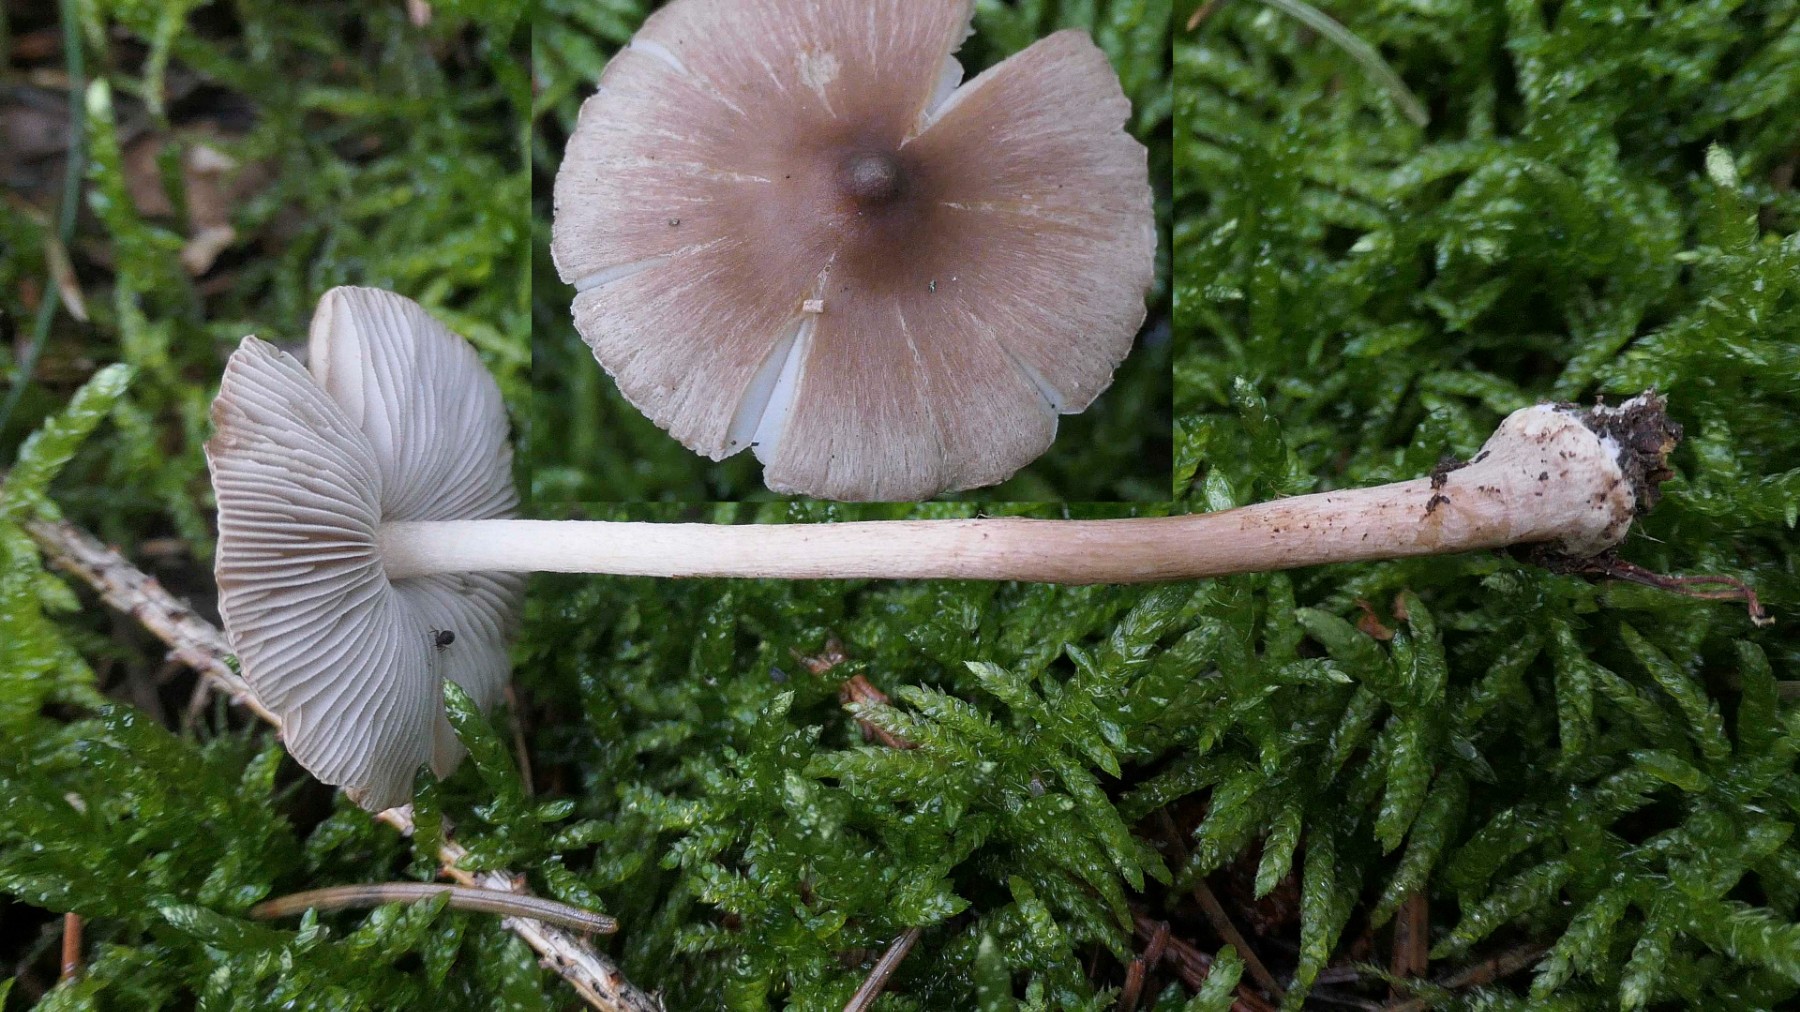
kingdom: Fungi
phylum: Basidiomycota
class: Agaricomycetes
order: Agaricales
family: Inocybaceae
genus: Inocybe
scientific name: Inocybe napipes
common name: roeknoldet trævlhat
